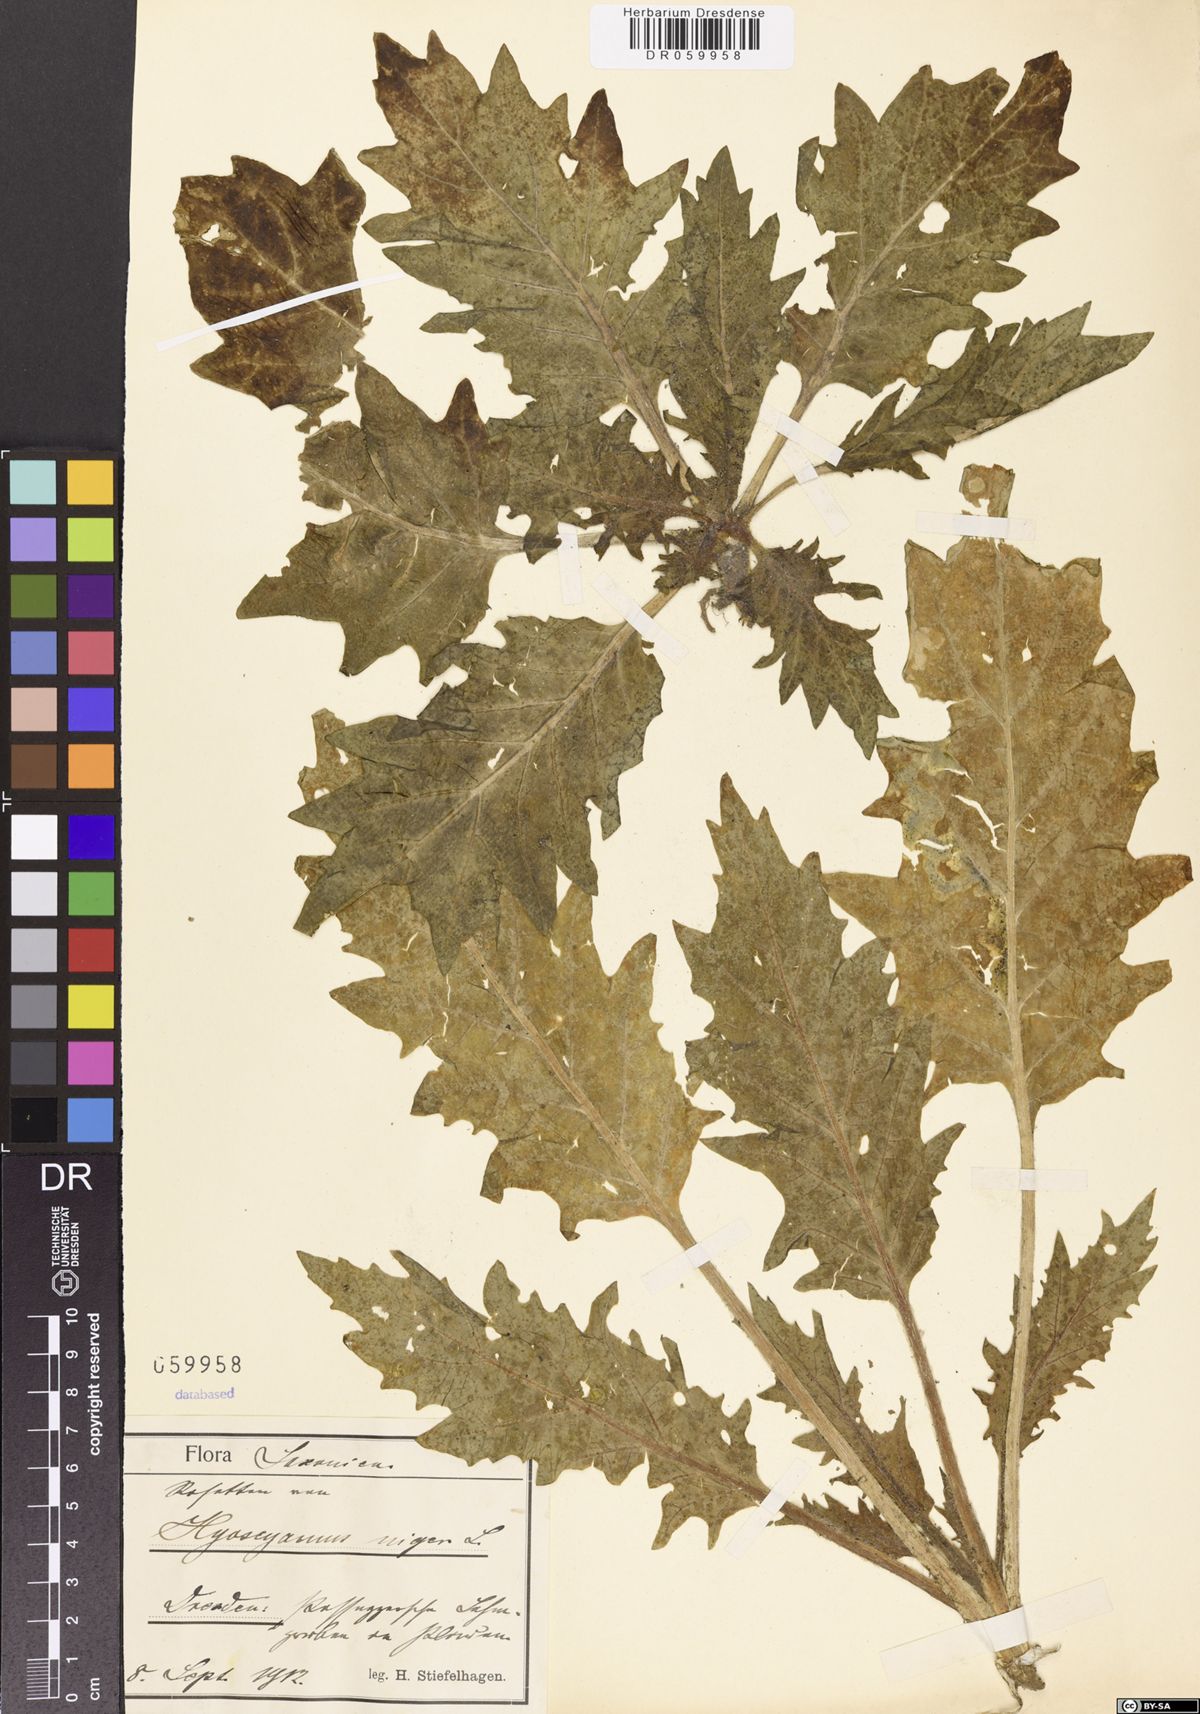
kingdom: Plantae
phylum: Tracheophyta
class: Magnoliopsida
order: Solanales
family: Solanaceae
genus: Hyoscyamus
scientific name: Hyoscyamus niger
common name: Henbane
